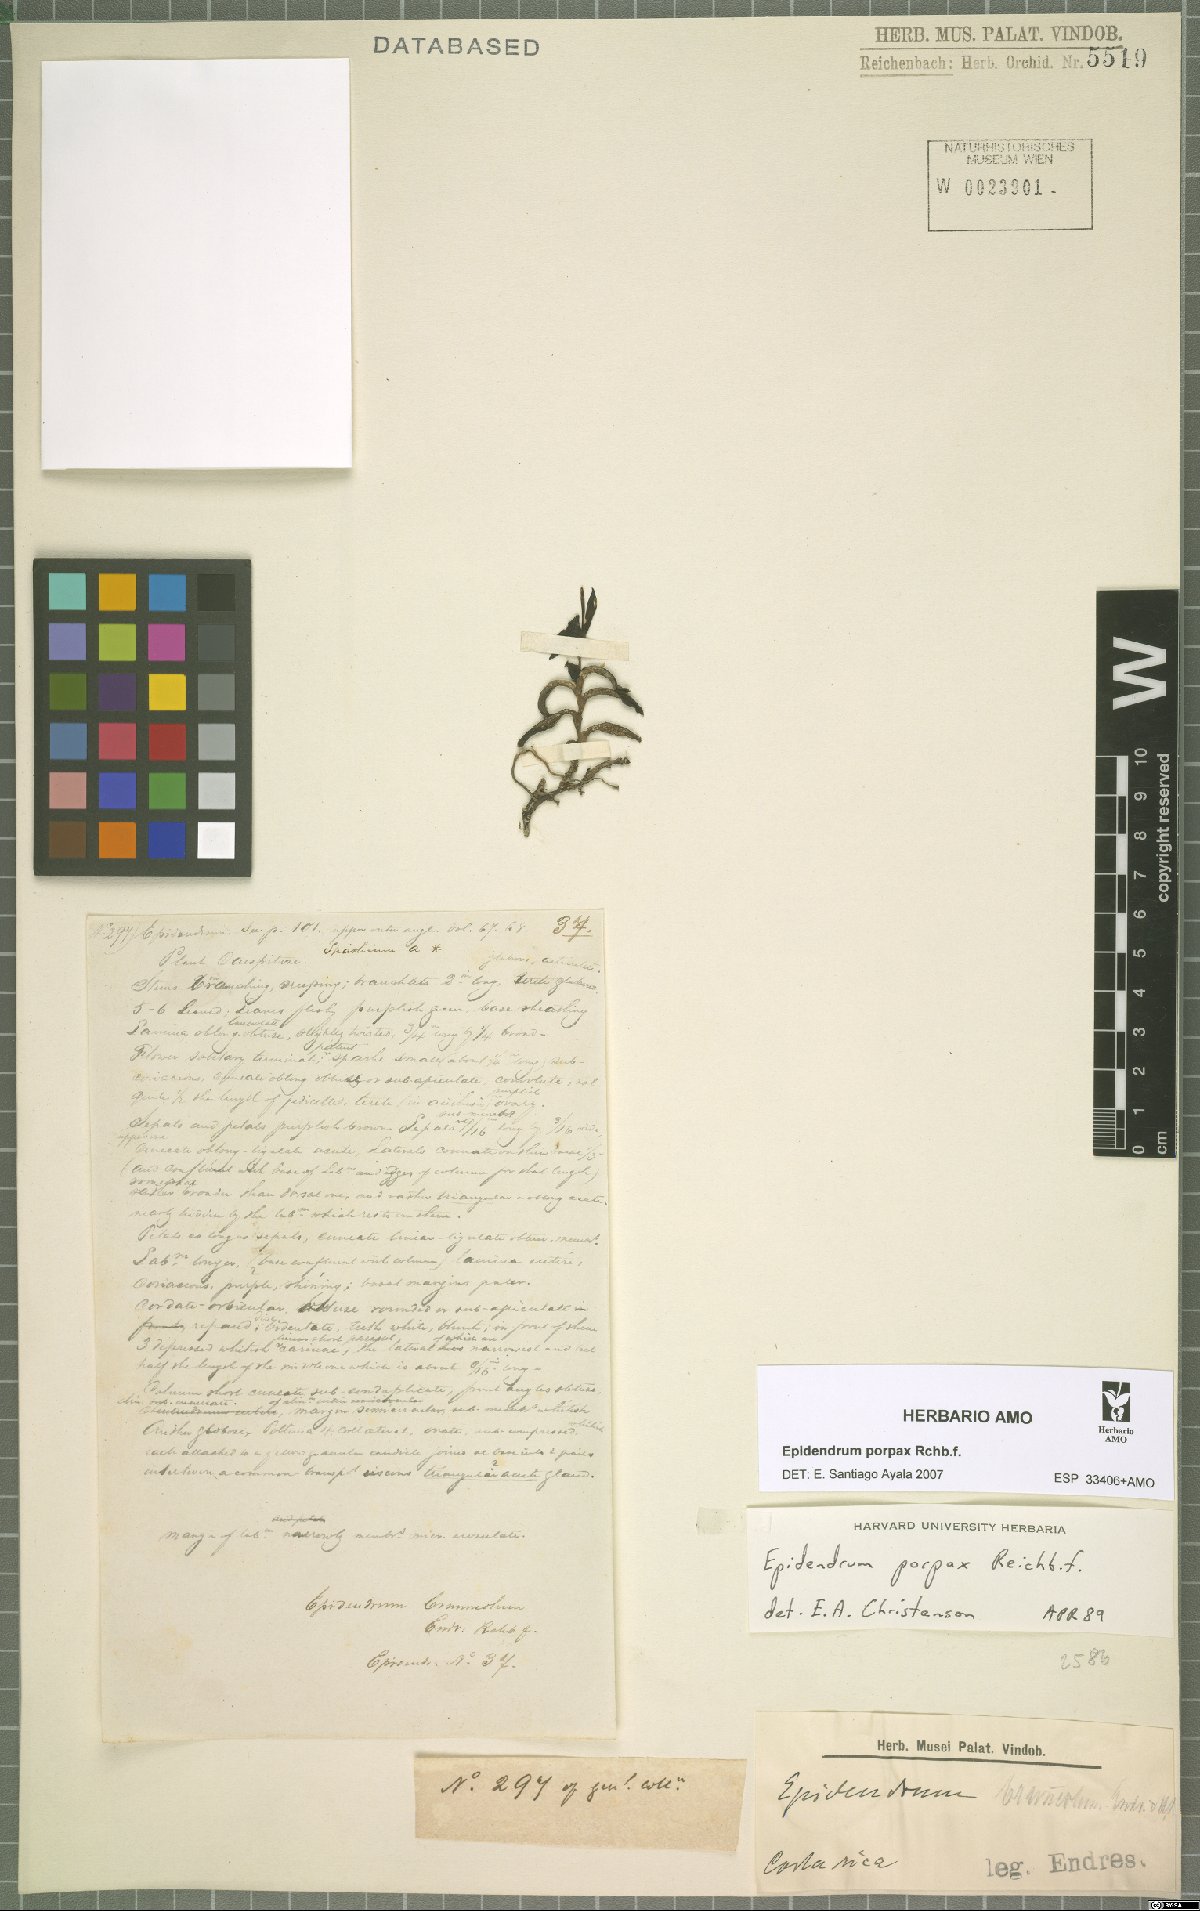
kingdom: Plantae
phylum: Tracheophyta
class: Liliopsida
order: Asparagales
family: Orchidaceae
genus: Epidendrum
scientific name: Epidendrum porpax
